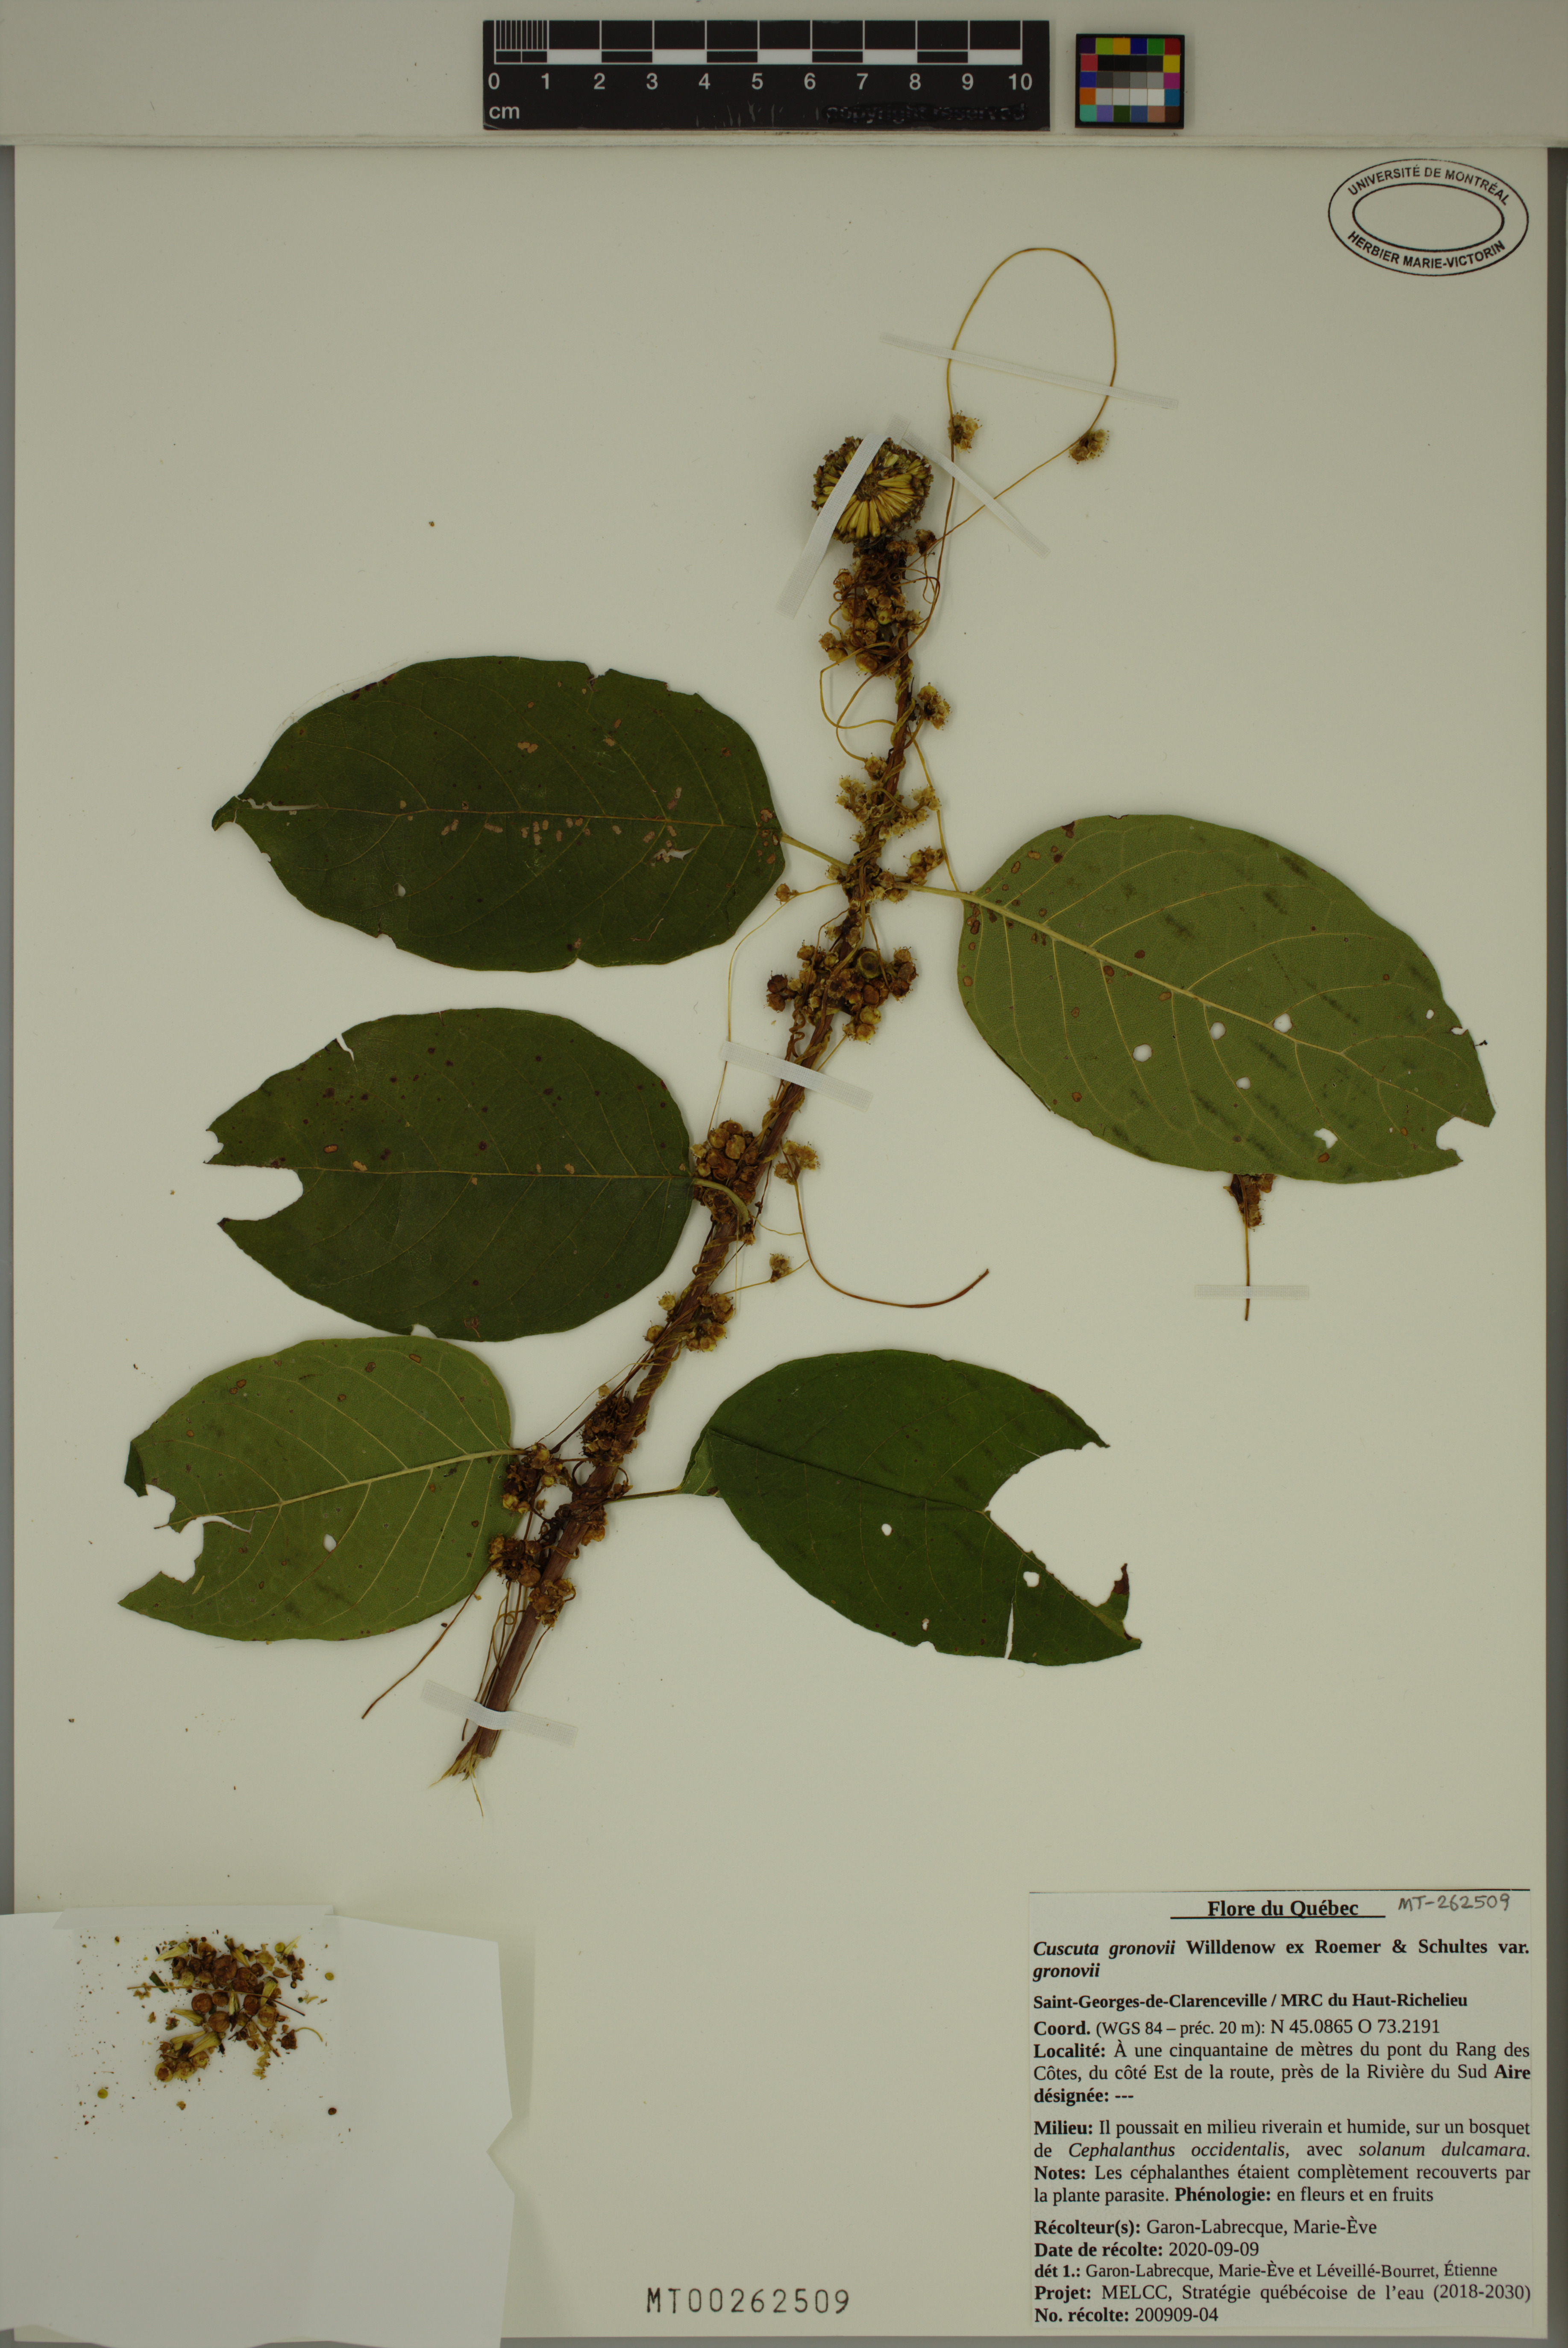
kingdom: Plantae
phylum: Tracheophyta
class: Magnoliopsida
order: Solanales
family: Convolvulaceae
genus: Cuscuta
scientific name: Cuscuta gronovii
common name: Common dodder
